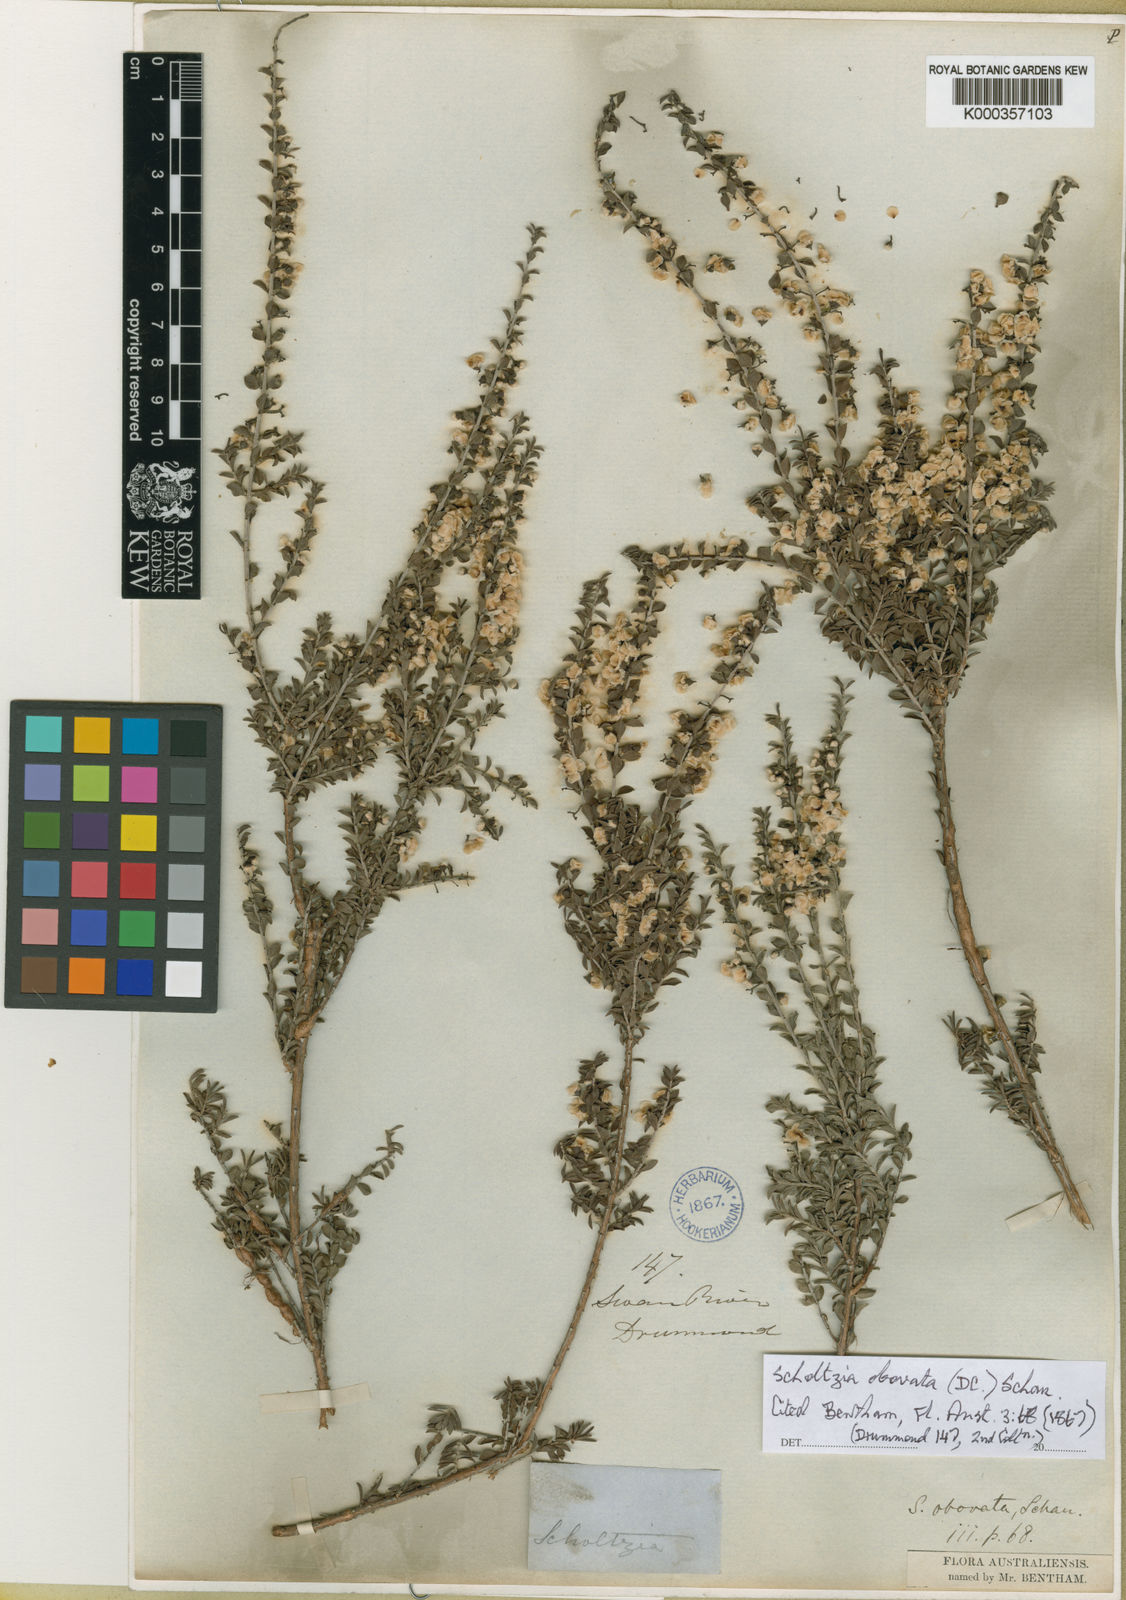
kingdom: Plantae
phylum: Tracheophyta
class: Magnoliopsida
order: Myrtales
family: Myrtaceae
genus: Scholtzia
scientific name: Scholtzia obovata
